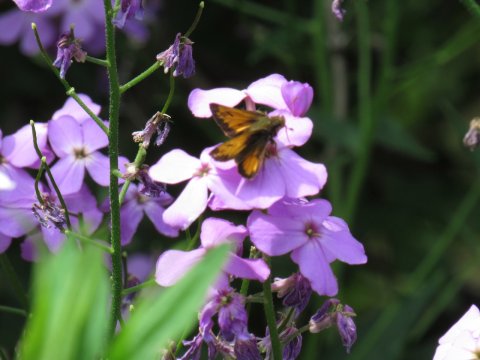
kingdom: Animalia
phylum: Arthropoda
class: Insecta
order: Lepidoptera
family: Hesperiidae
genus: Lon
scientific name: Lon hobomok
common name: Hobomok Skipper
